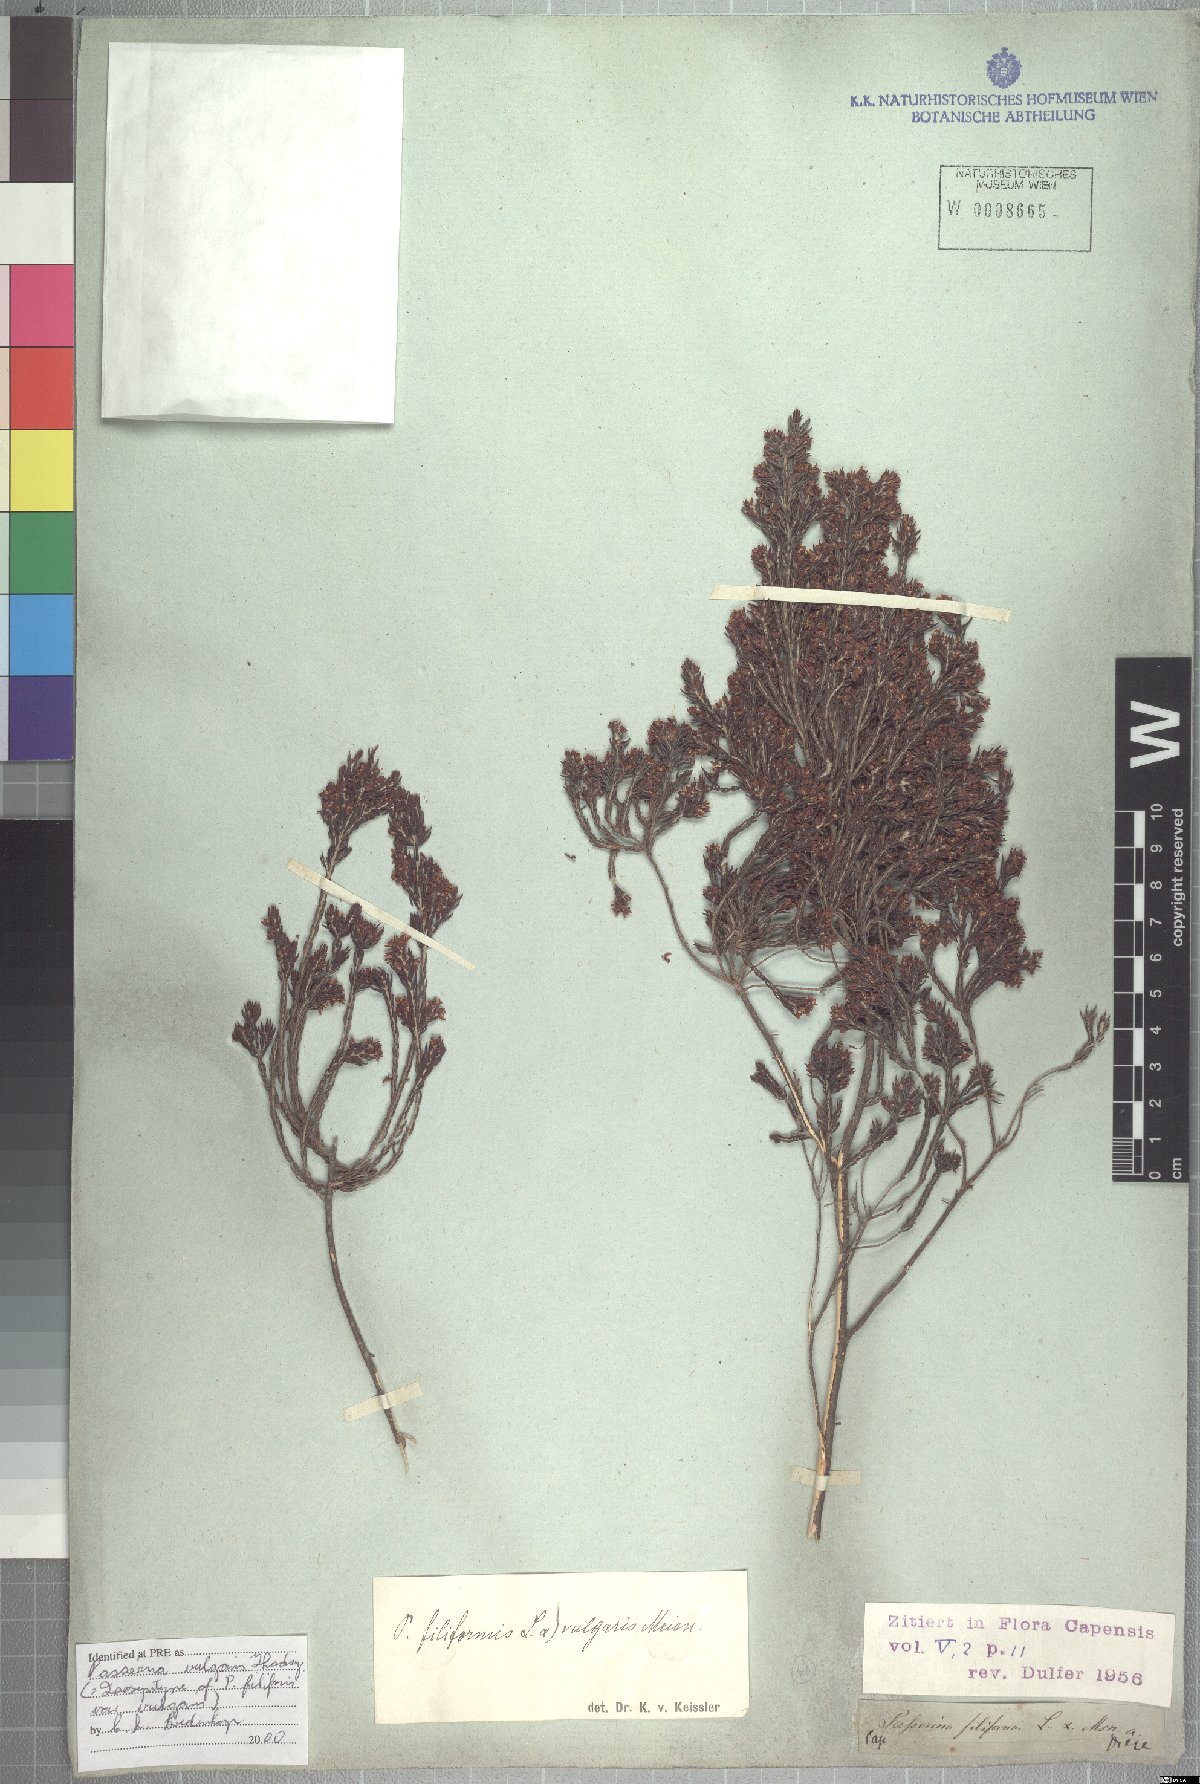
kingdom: Plantae
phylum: Tracheophyta
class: Magnoliopsida
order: Malvales
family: Thymelaeaceae
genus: Passerina
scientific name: Passerina corymbosa
